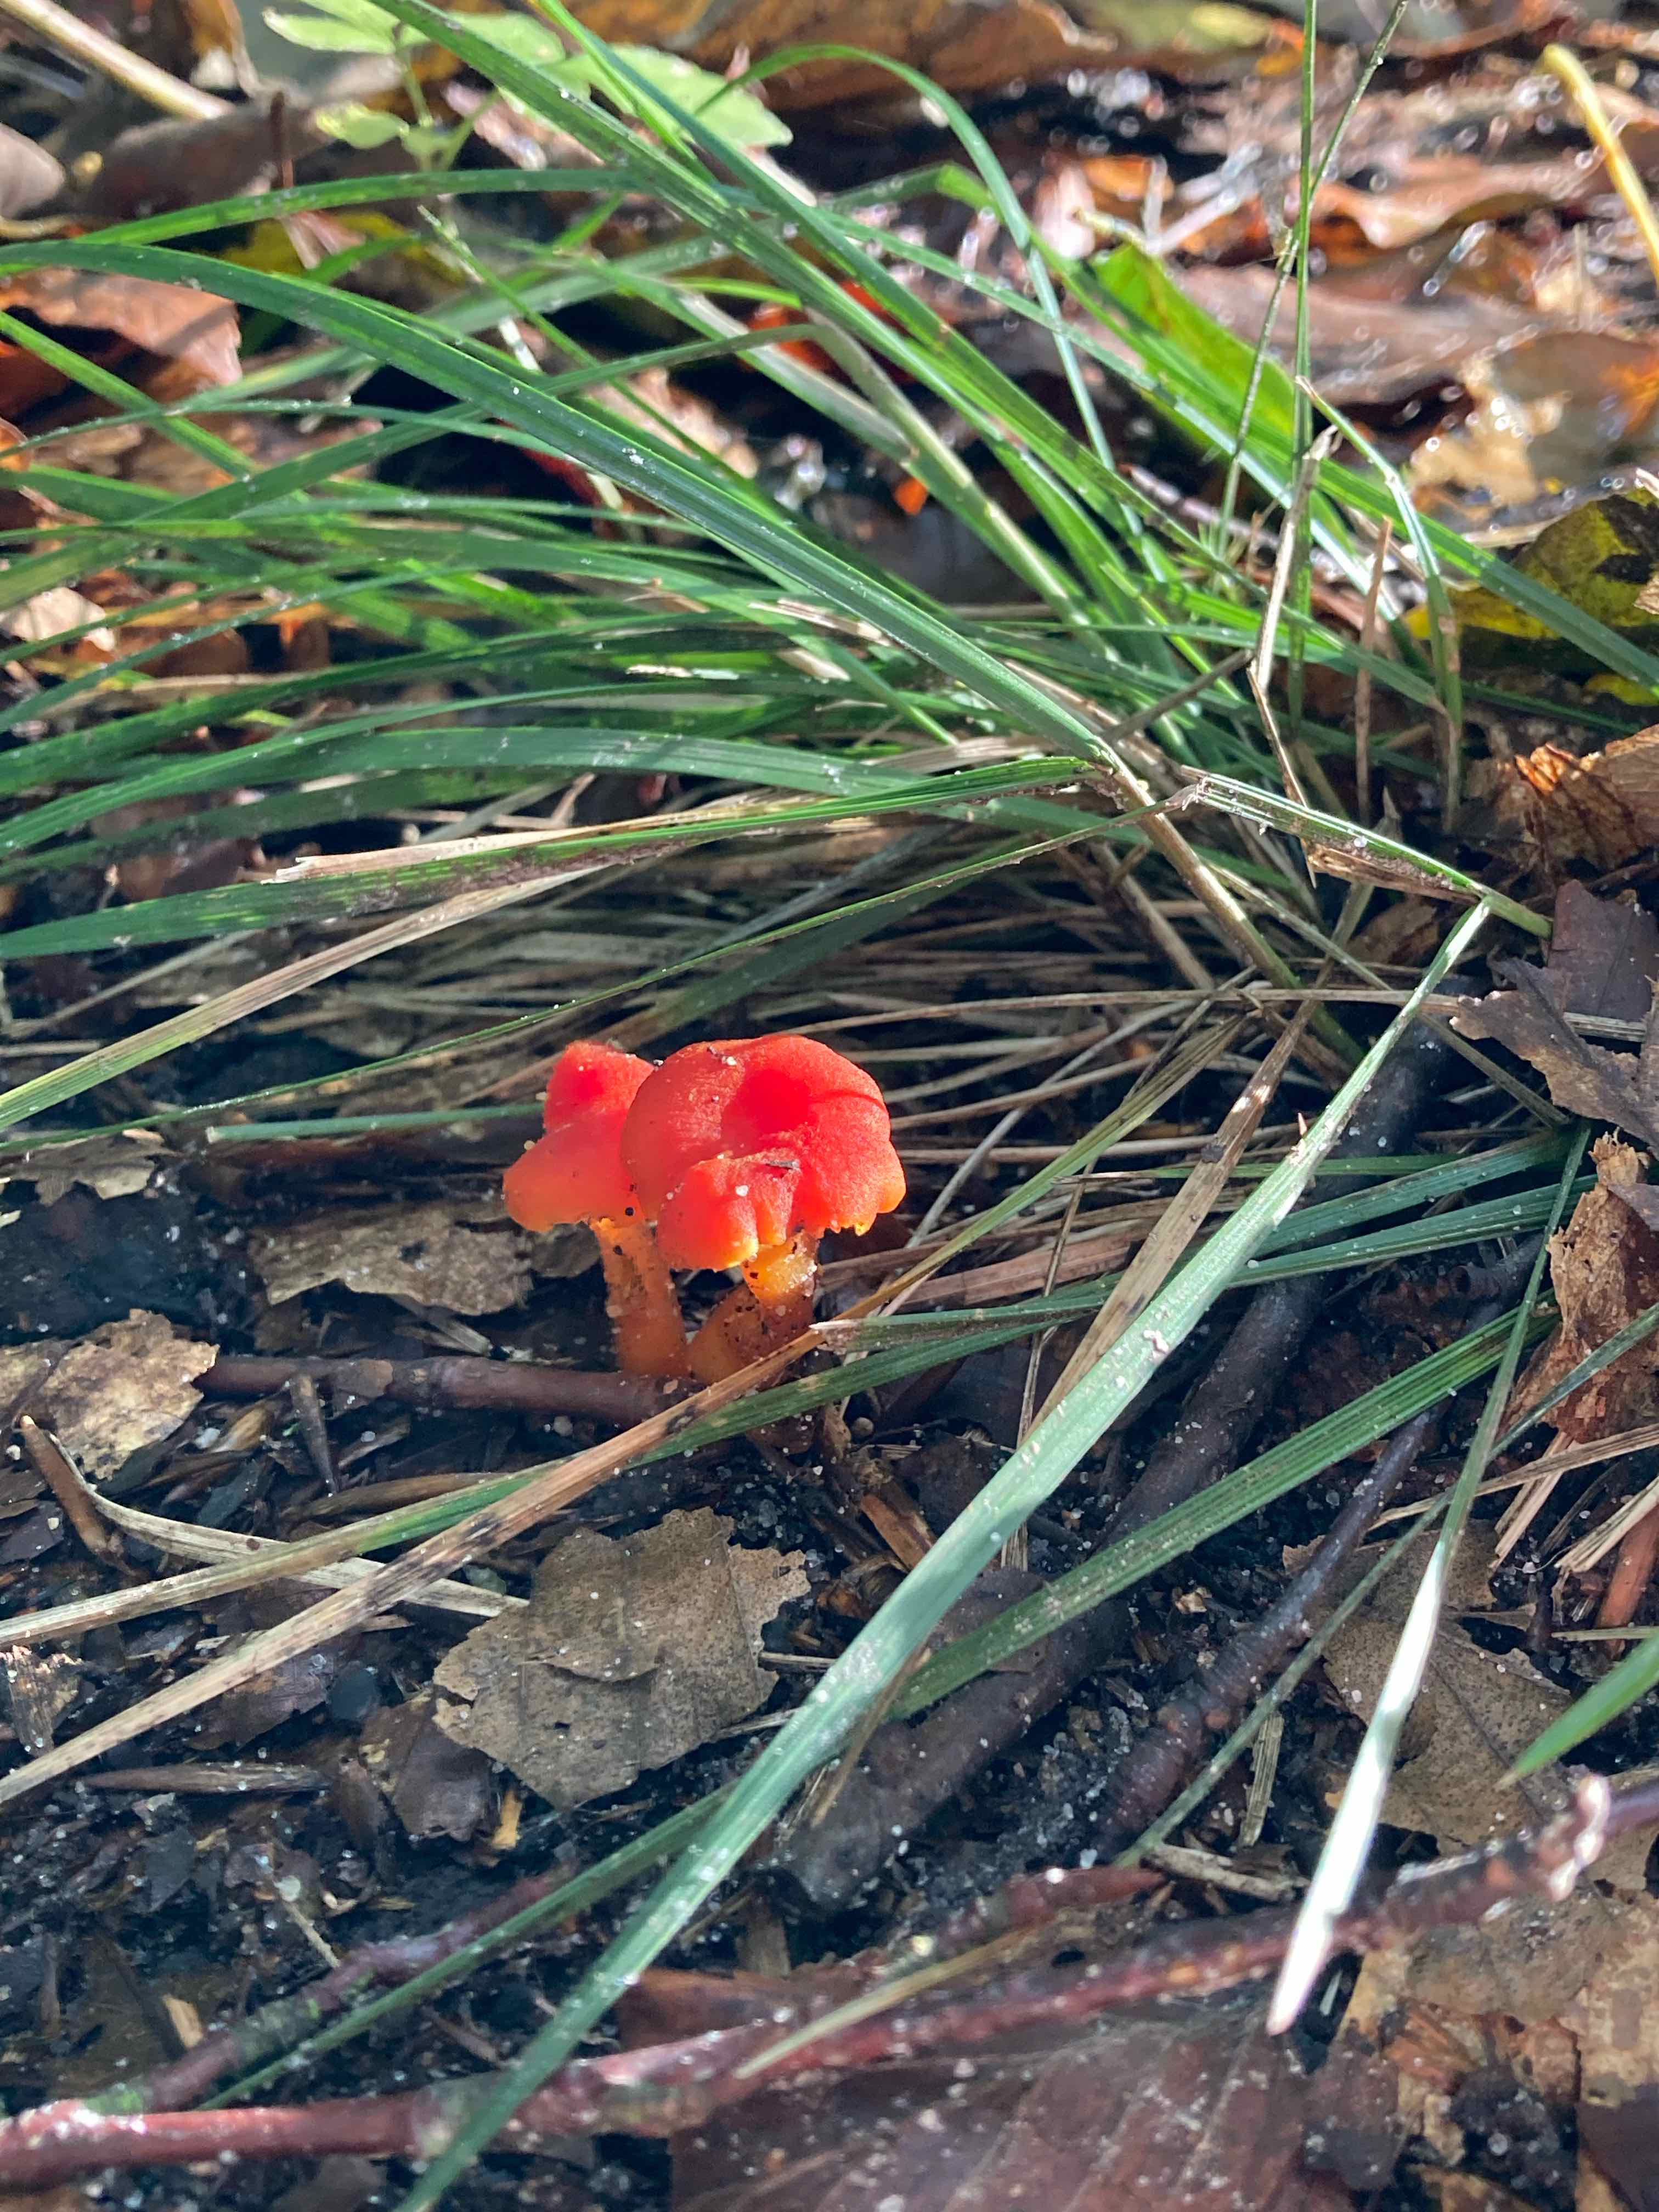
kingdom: Fungi
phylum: Basidiomycota
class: Agaricomycetes
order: Agaricales
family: Hygrophoraceae
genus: Hygrocybe
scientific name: Hygrocybe miniata
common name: mønje-vokshat
